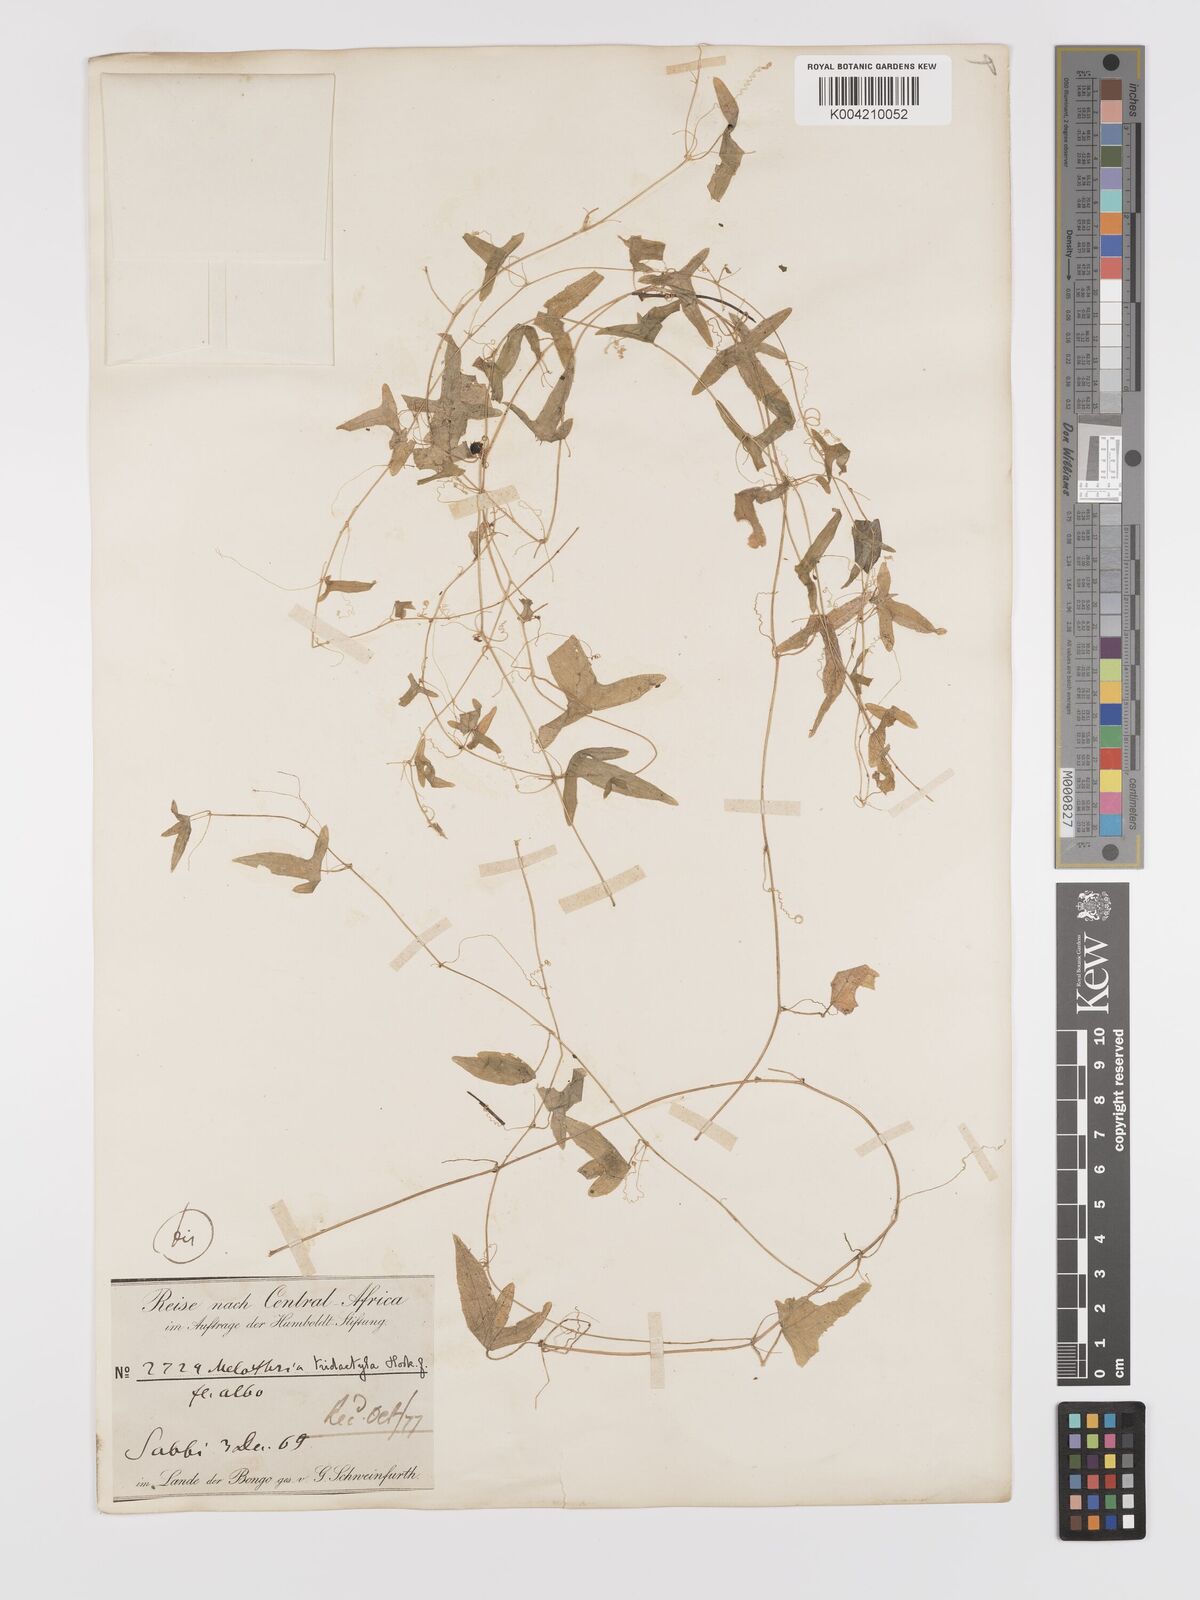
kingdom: Plantae
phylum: Tracheophyta
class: Magnoliopsida
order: Cucurbitales
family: Cucurbitaceae
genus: Zehneria
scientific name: Zehneria thwaitesii
